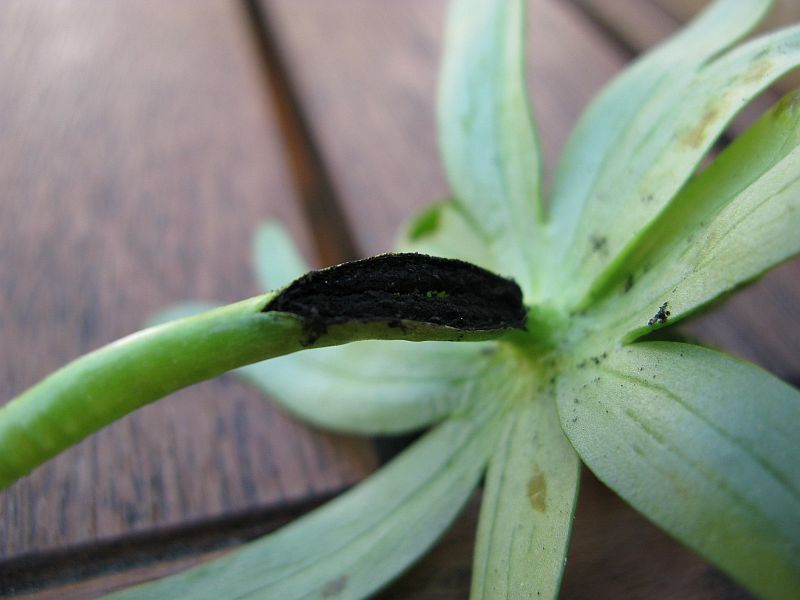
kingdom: Fungi
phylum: Basidiomycota
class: Ustilaginomycetes
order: Urocystidales
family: Urocystidaceae
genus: Urocystis
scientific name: Urocystis eranthidis
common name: erantis-brand
